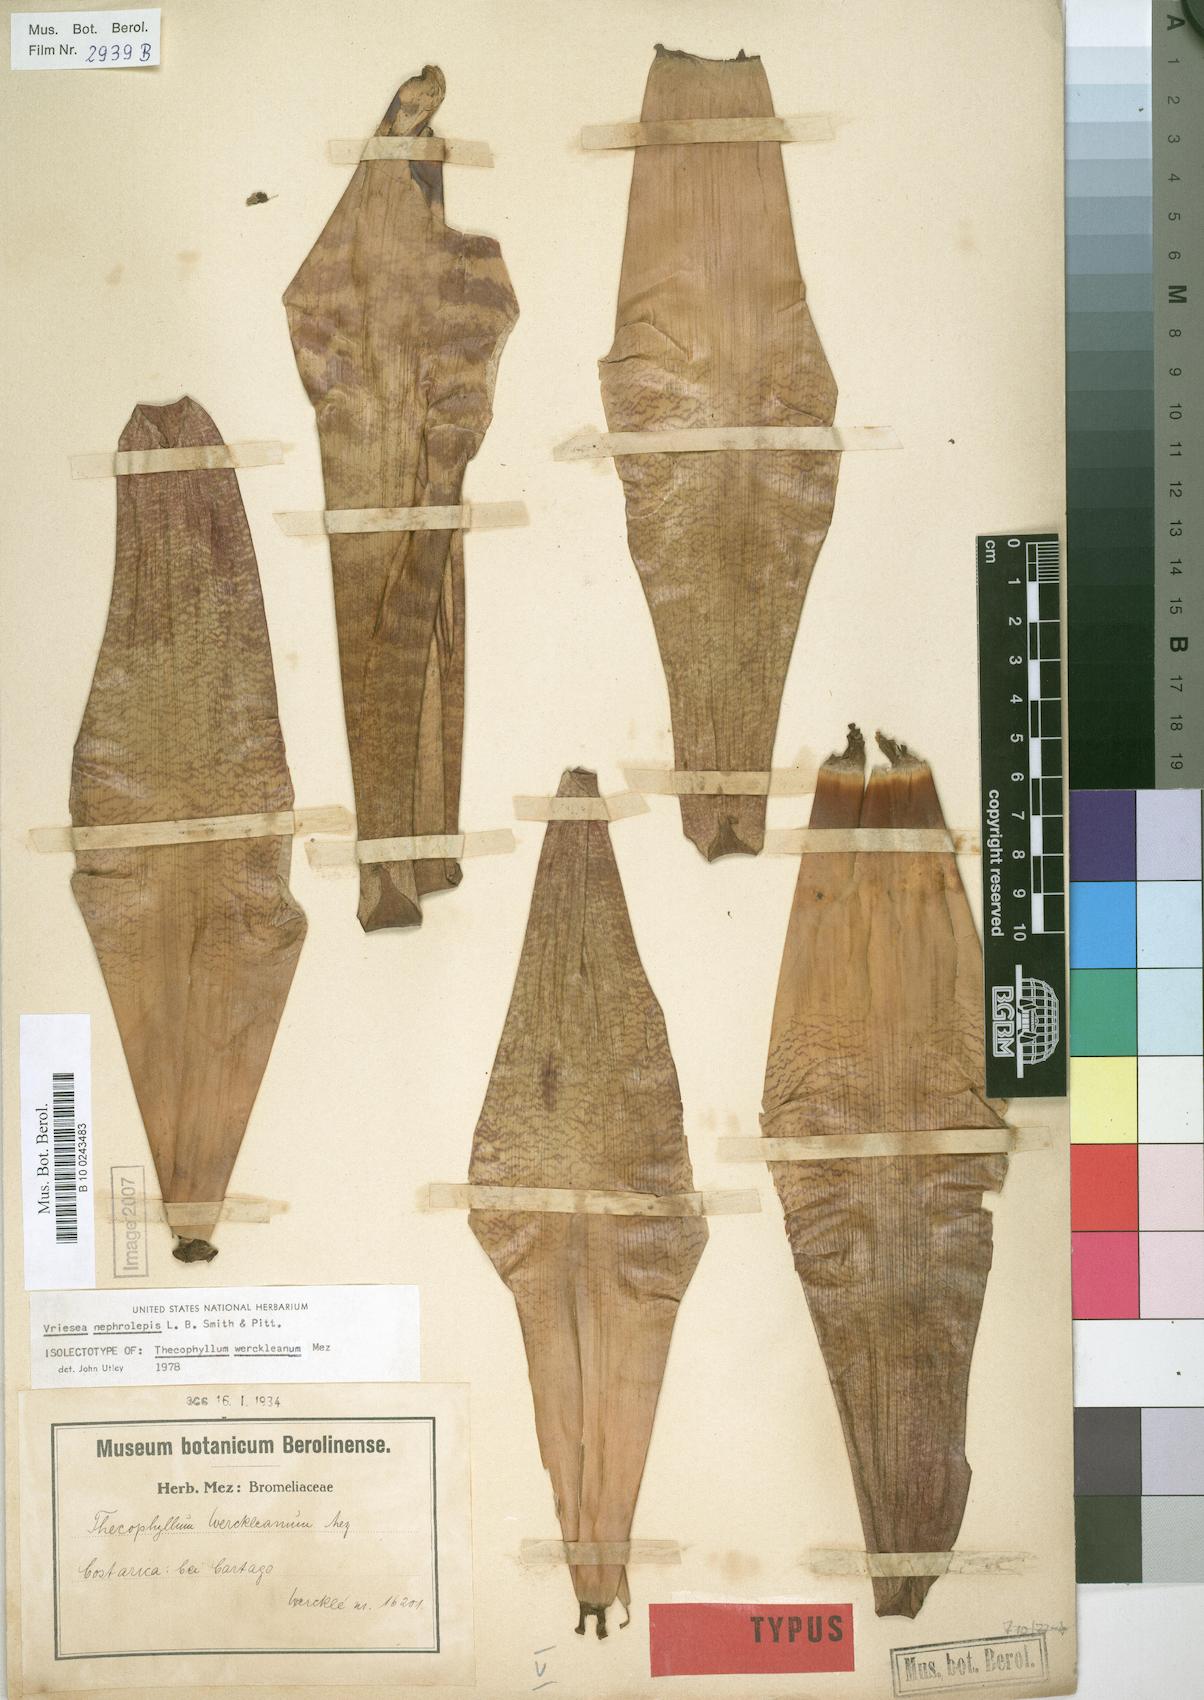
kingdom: Plantae
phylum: Tracheophyta
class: Liliopsida
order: Poales
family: Bromeliaceae
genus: Werauhia
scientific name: Werauhia montana
